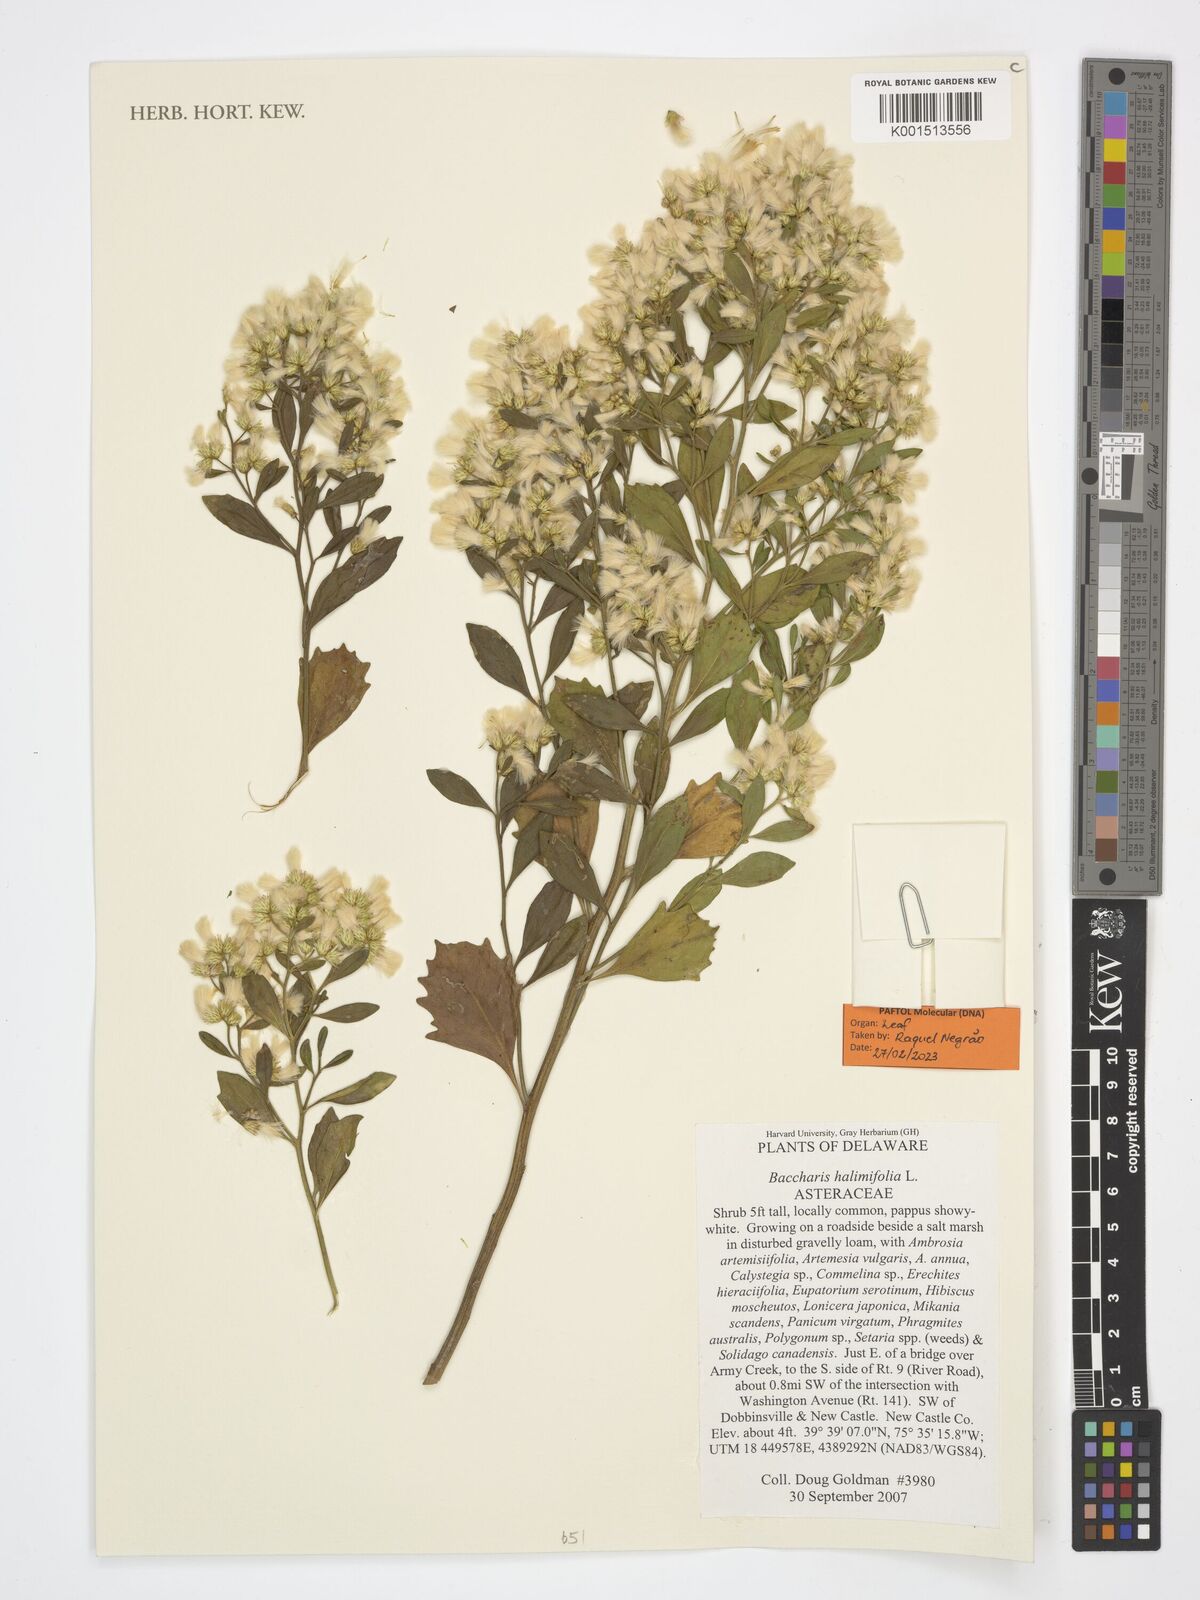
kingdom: Plantae
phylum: Tracheophyta
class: Magnoliopsida
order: Asterales
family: Asteraceae
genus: Baccharis
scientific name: Baccharis halimifolia
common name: Eastern baccharis
